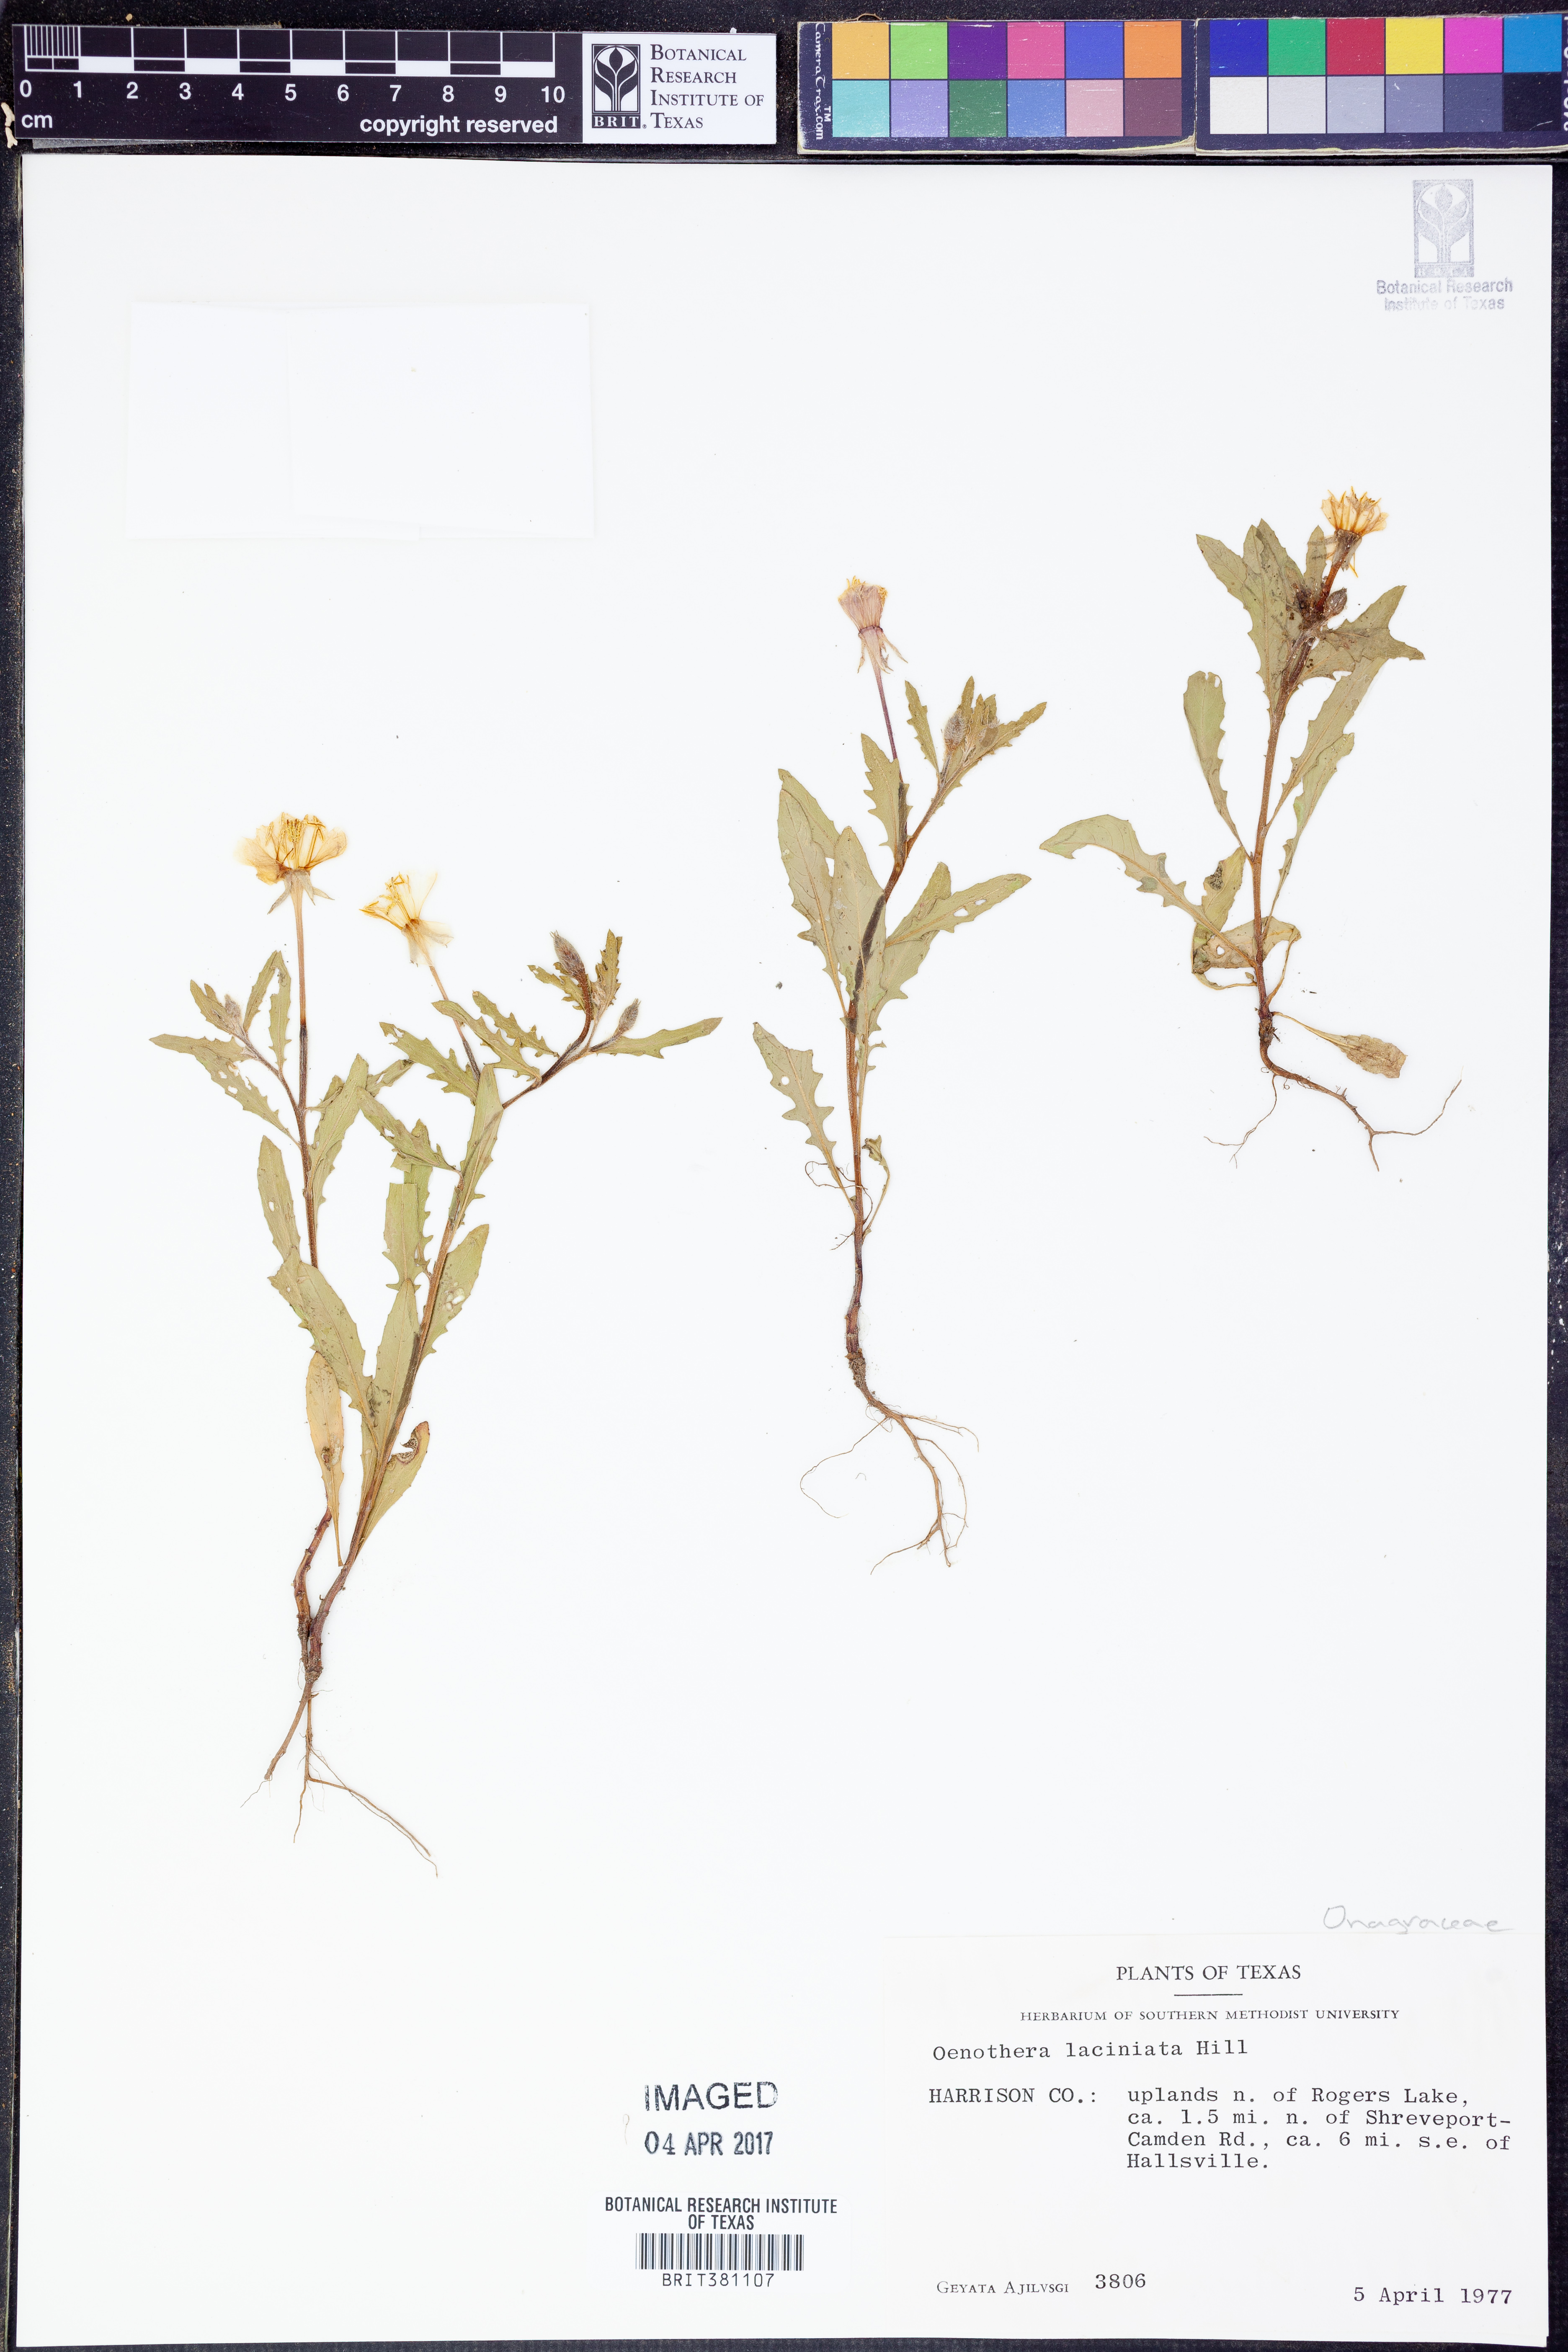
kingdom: Plantae
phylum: Tracheophyta
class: Magnoliopsida
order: Myrtales
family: Onagraceae
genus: Oenothera
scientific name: Oenothera laciniata
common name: Cut-leaved evening-primrose
